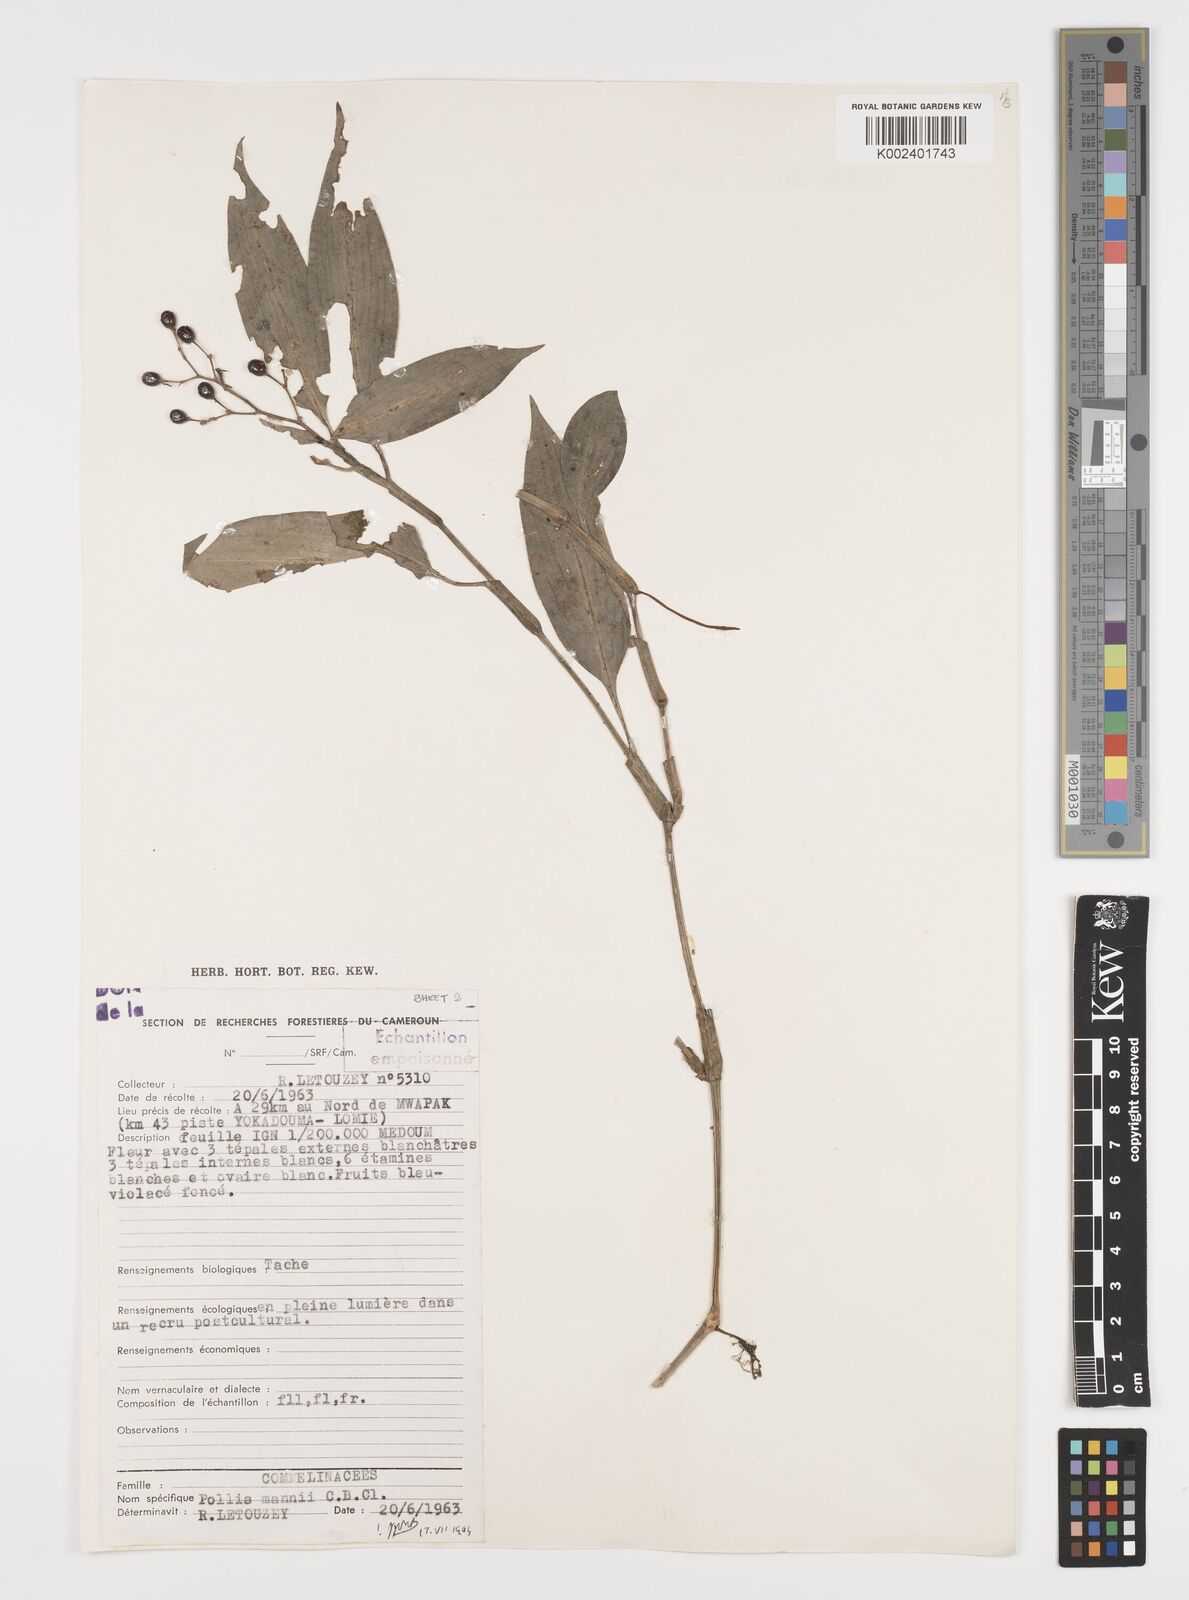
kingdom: Plantae
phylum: Tracheophyta
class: Liliopsida
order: Commelinales
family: Commelinaceae
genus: Pollia
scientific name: Pollia mannii
